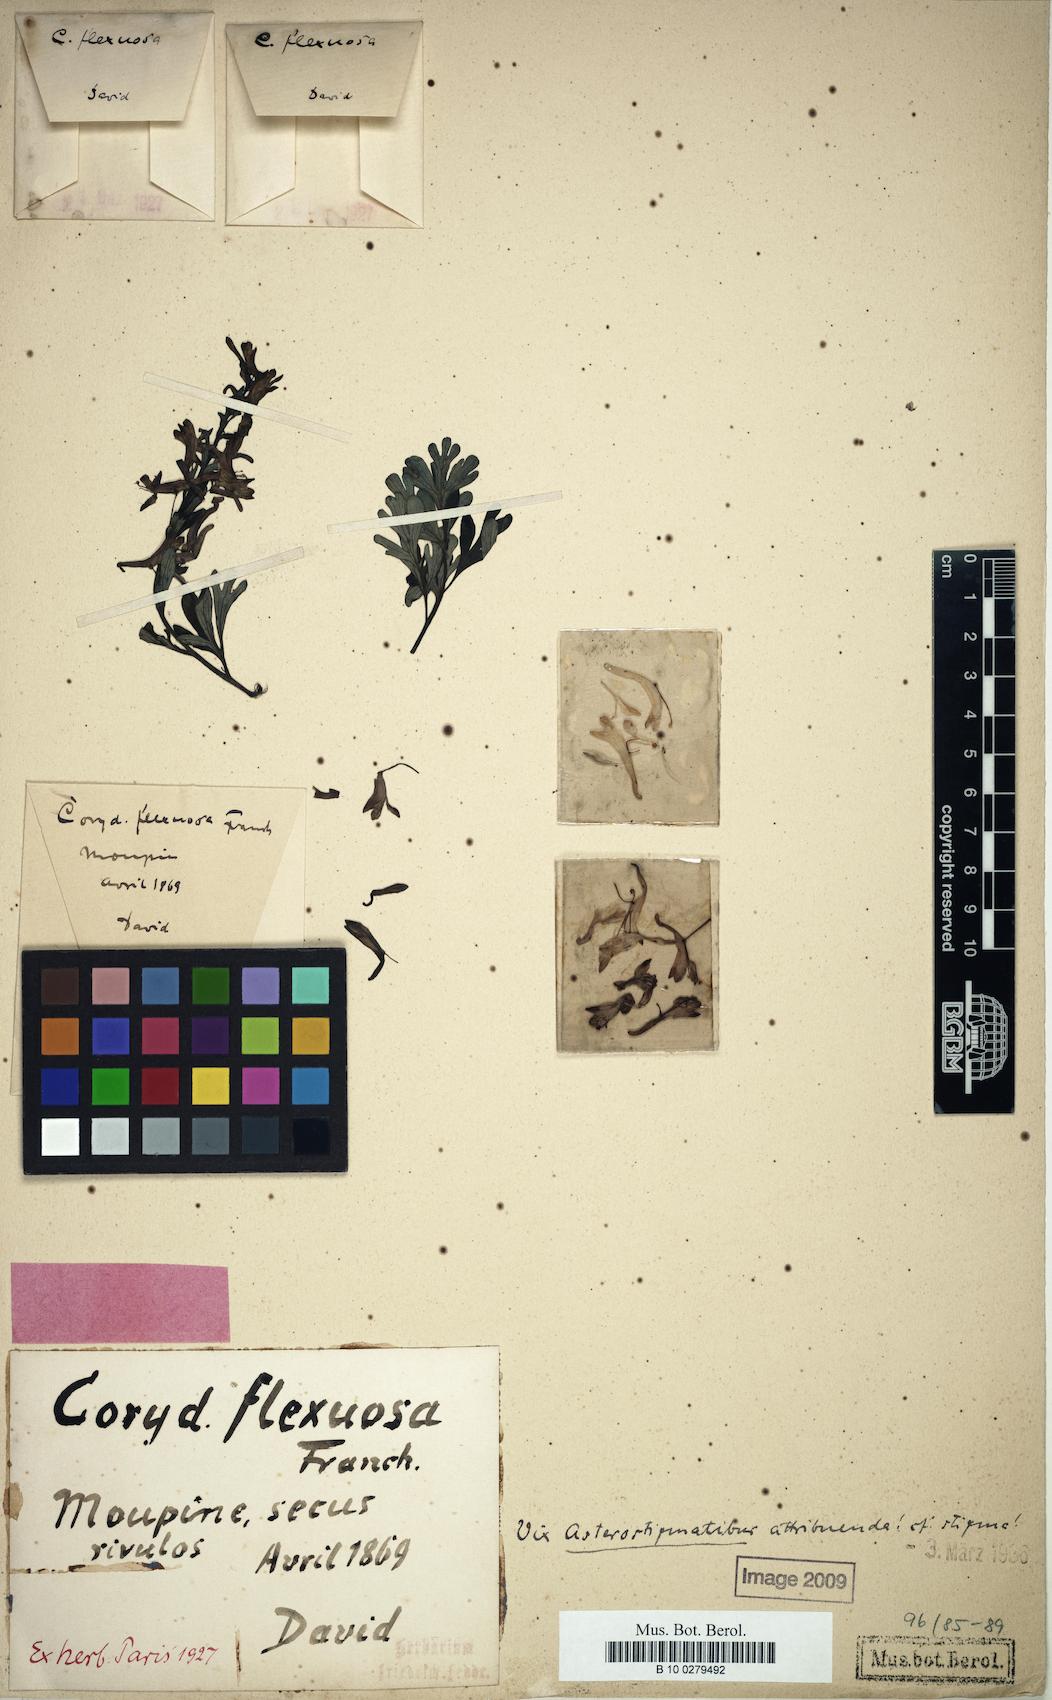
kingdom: Plantae
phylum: Tracheophyta
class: Magnoliopsida
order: Ranunculales
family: Papaveraceae
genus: Corydalis
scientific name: Corydalis flexuosa
